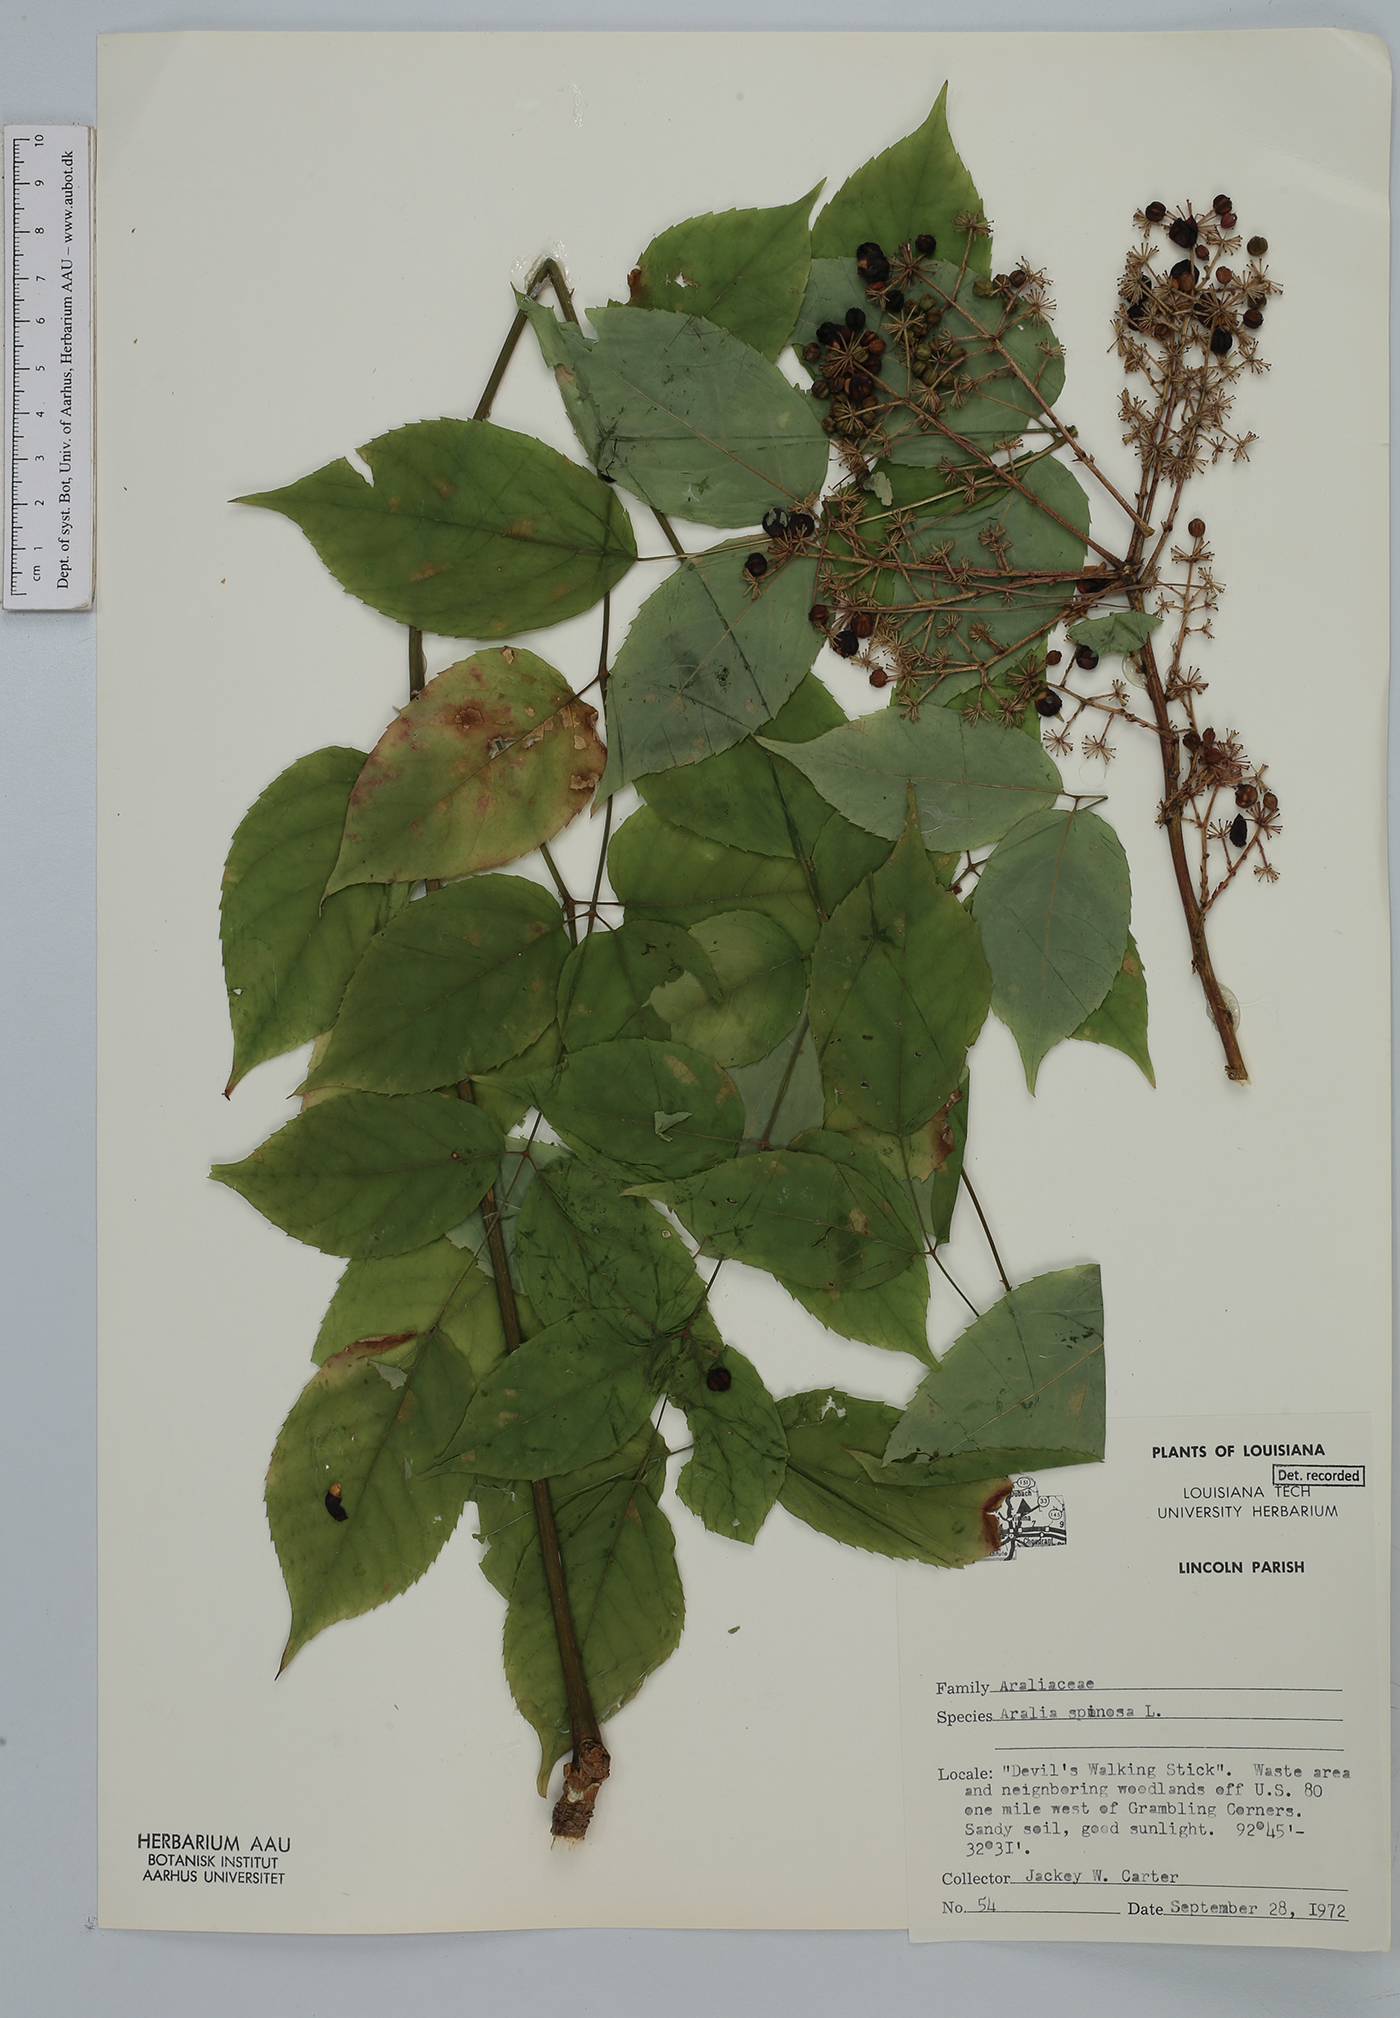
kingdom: Plantae
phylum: Tracheophyta
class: Magnoliopsida
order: Apiales
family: Araliaceae
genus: Aralia
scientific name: Aralia spinosa
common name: Hercules'-club
